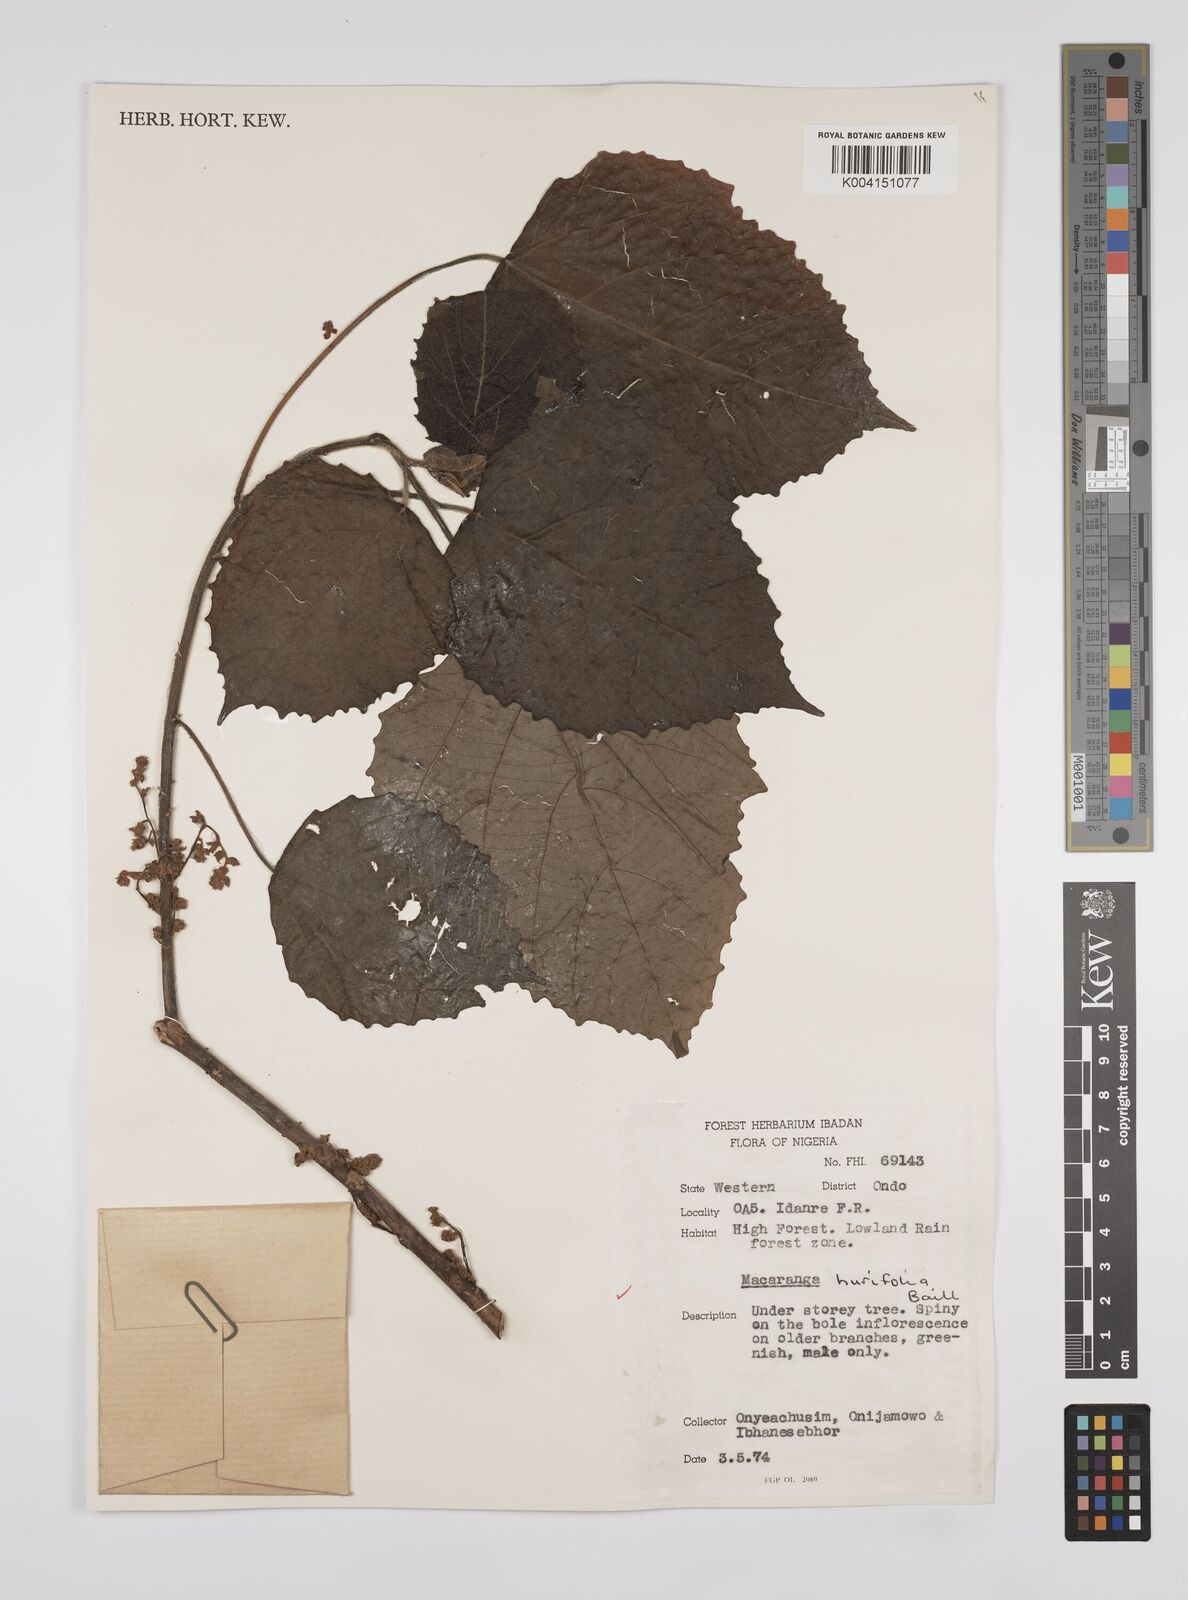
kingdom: Plantae
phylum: Tracheophyta
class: Magnoliopsida
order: Malpighiales
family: Euphorbiaceae
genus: Macaranga
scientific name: Macaranga hurifolia
